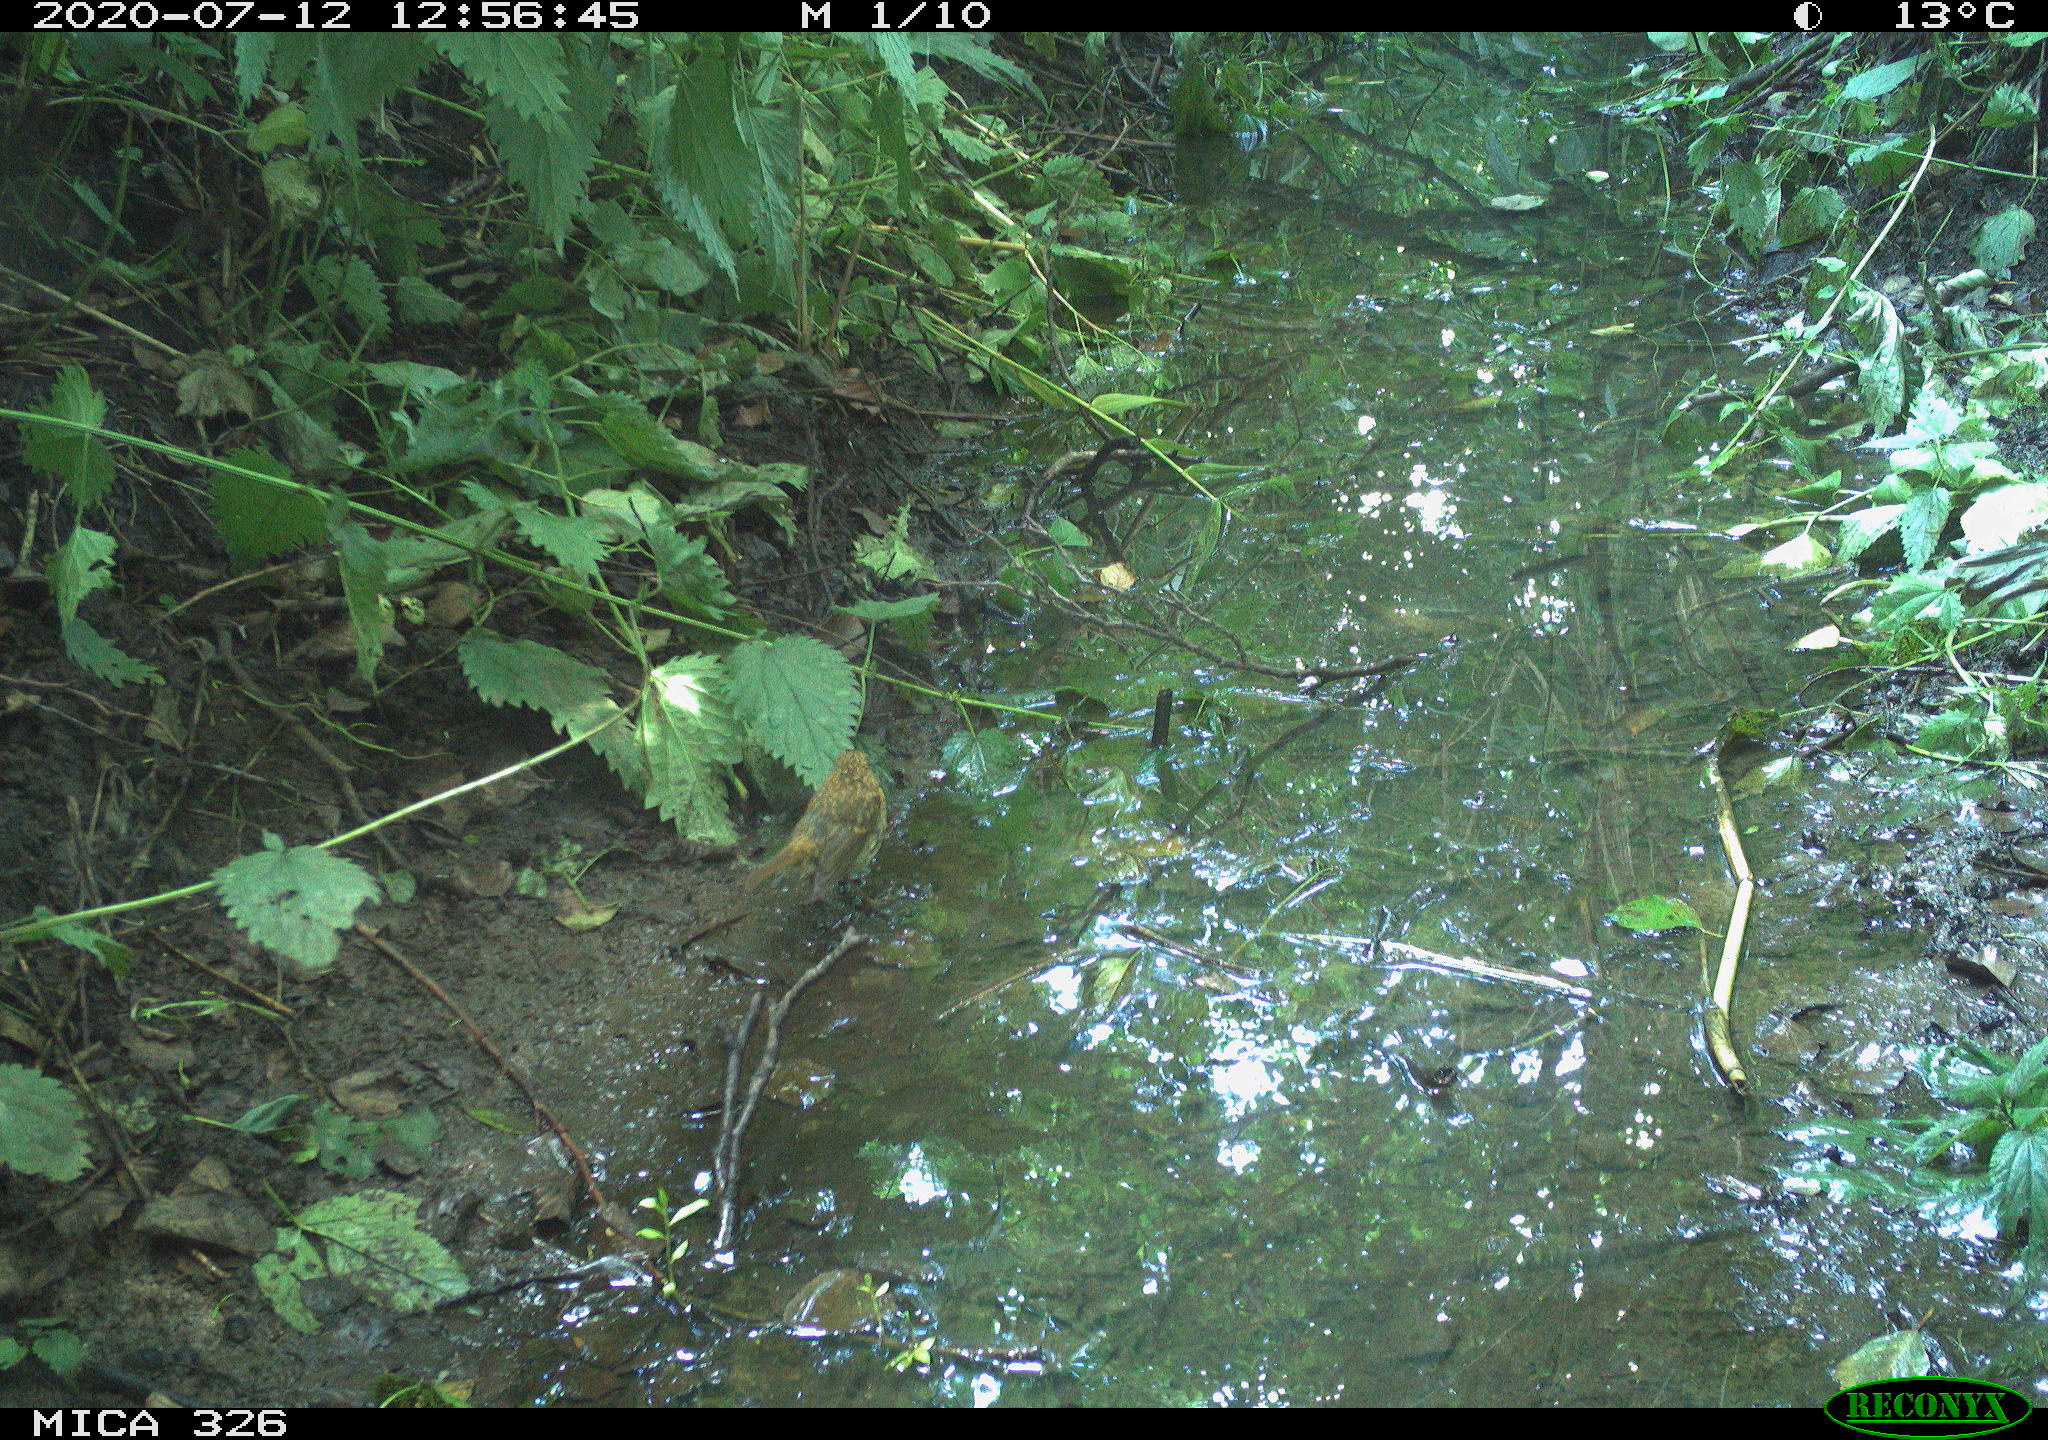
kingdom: Animalia
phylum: Chordata
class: Aves
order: Passeriformes
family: Turdidae
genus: Turdus
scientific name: Turdus philomelos
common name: Song thrush
